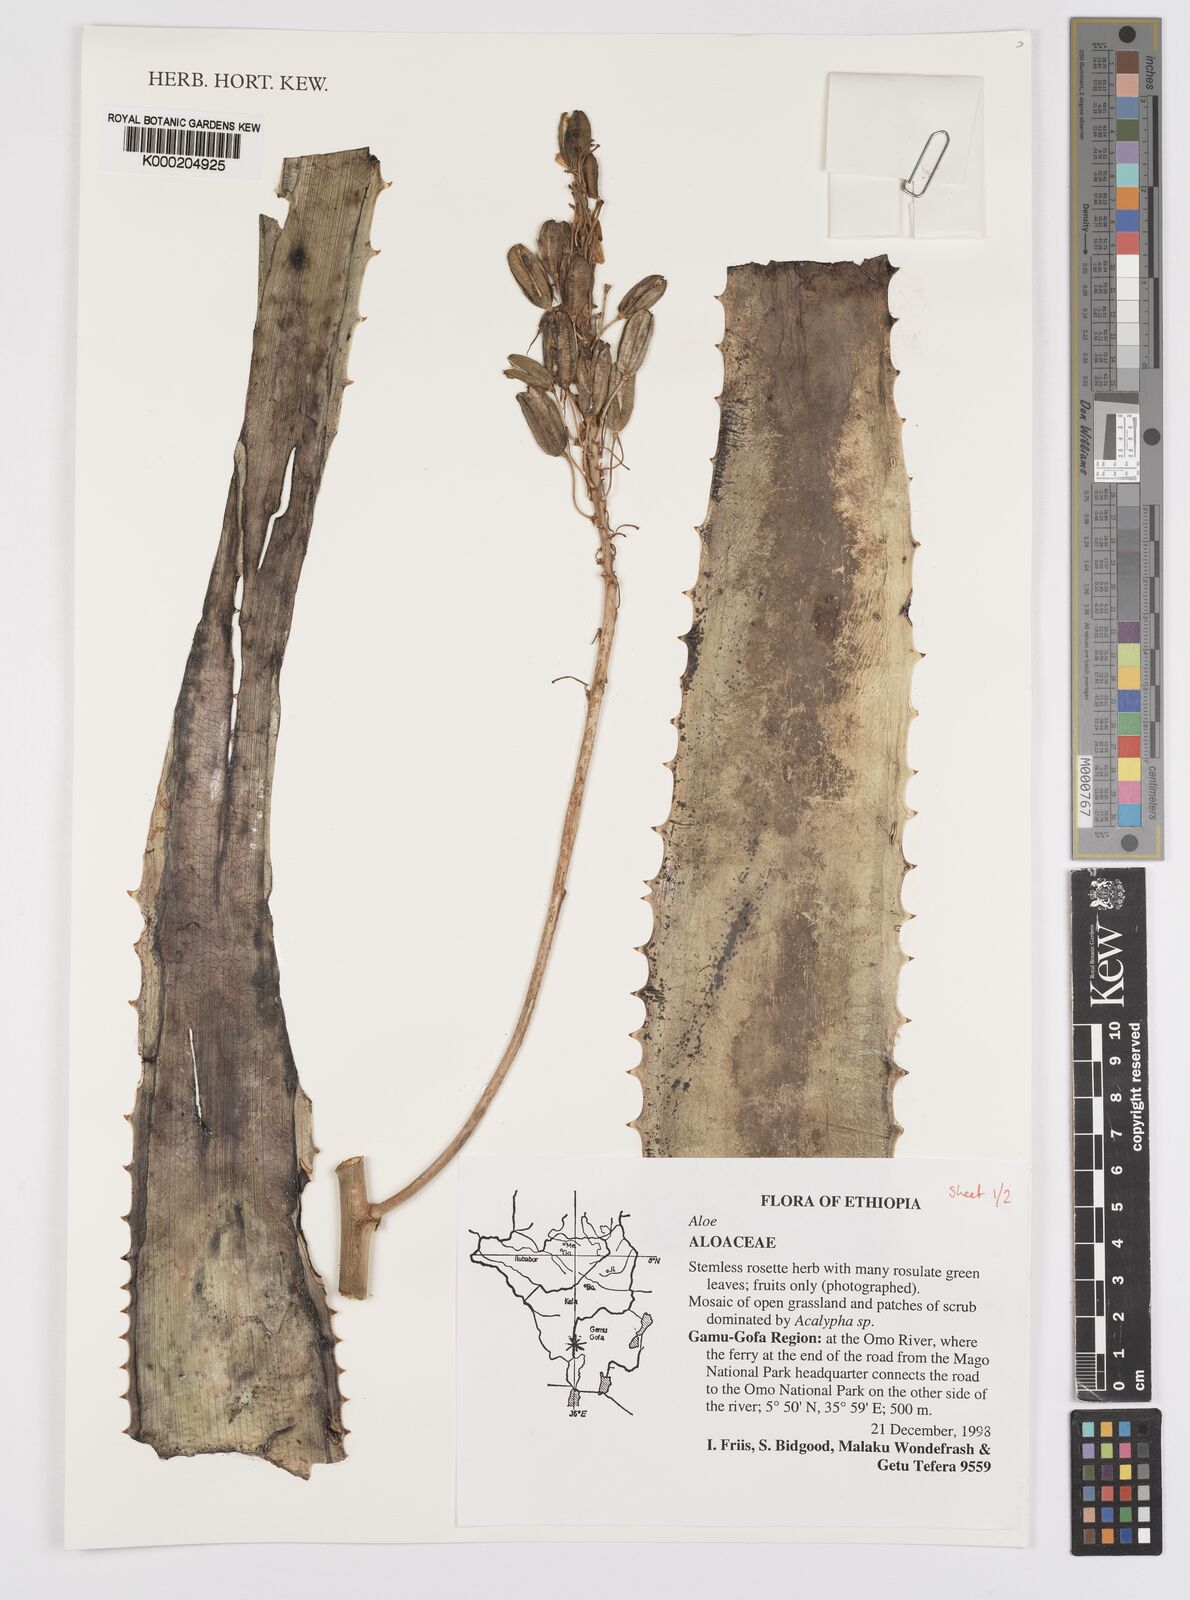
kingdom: Plantae
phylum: Tracheophyta
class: Liliopsida
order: Asparagales
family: Asphodelaceae
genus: Aloe
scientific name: Aloe
